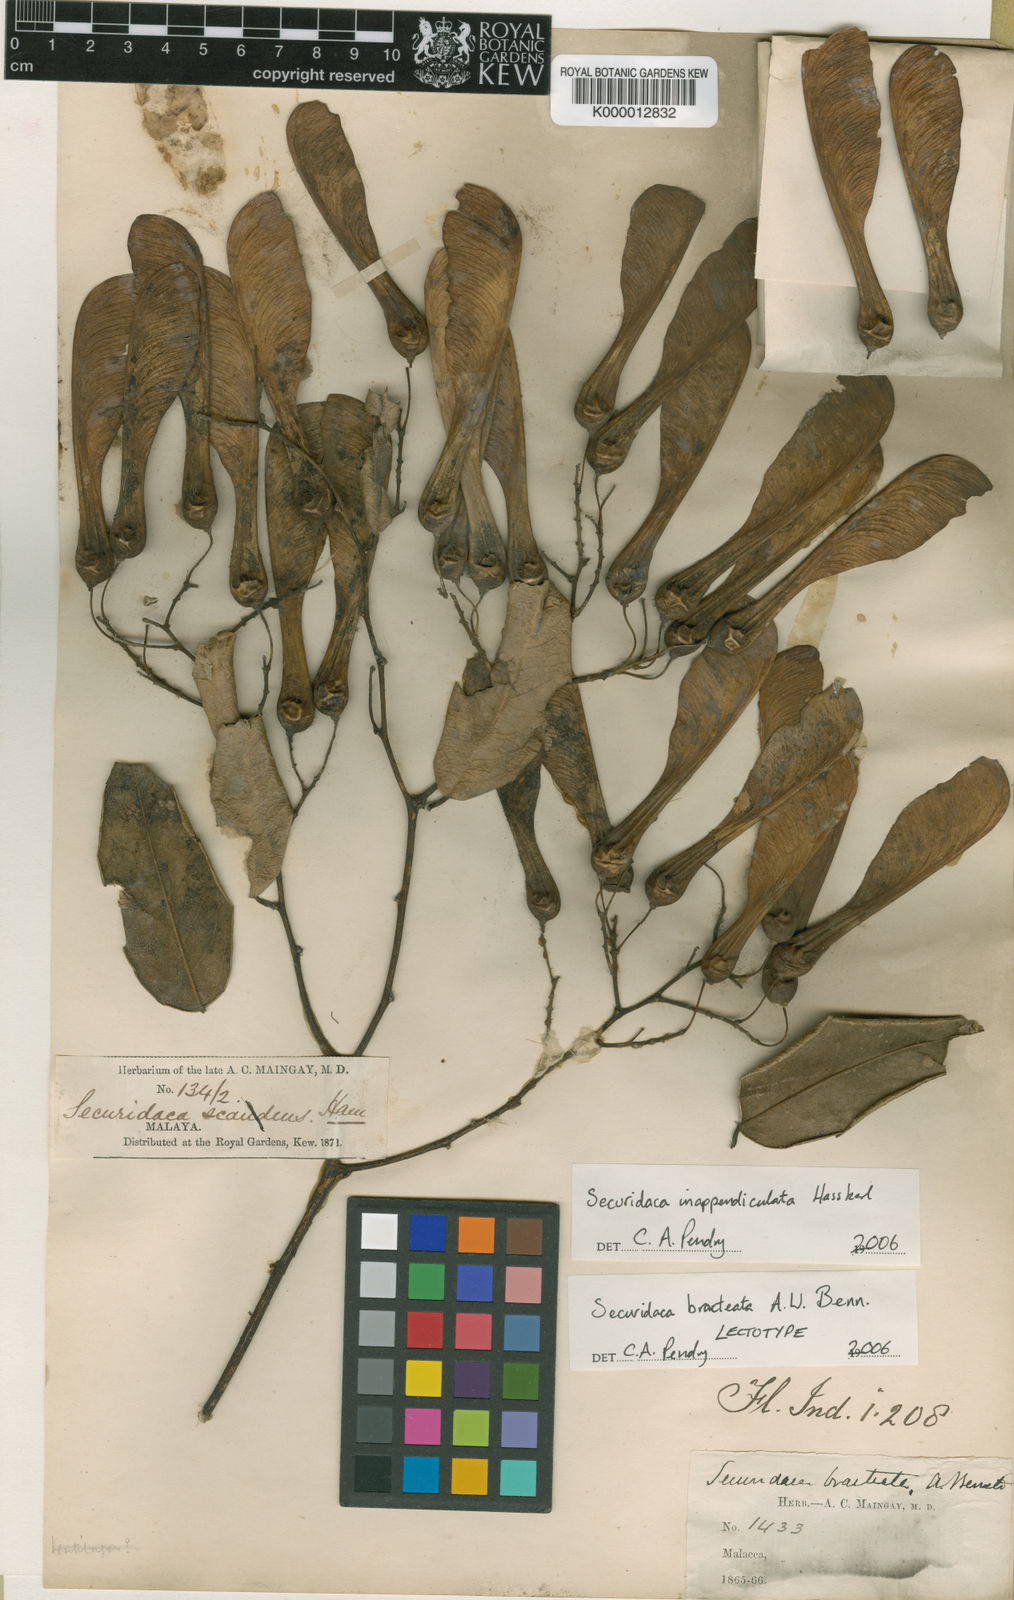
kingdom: Plantae
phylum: Tracheophyta
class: Magnoliopsida
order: Fabales
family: Polygalaceae
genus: Securidaca
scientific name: Securidaca inappendiculata
